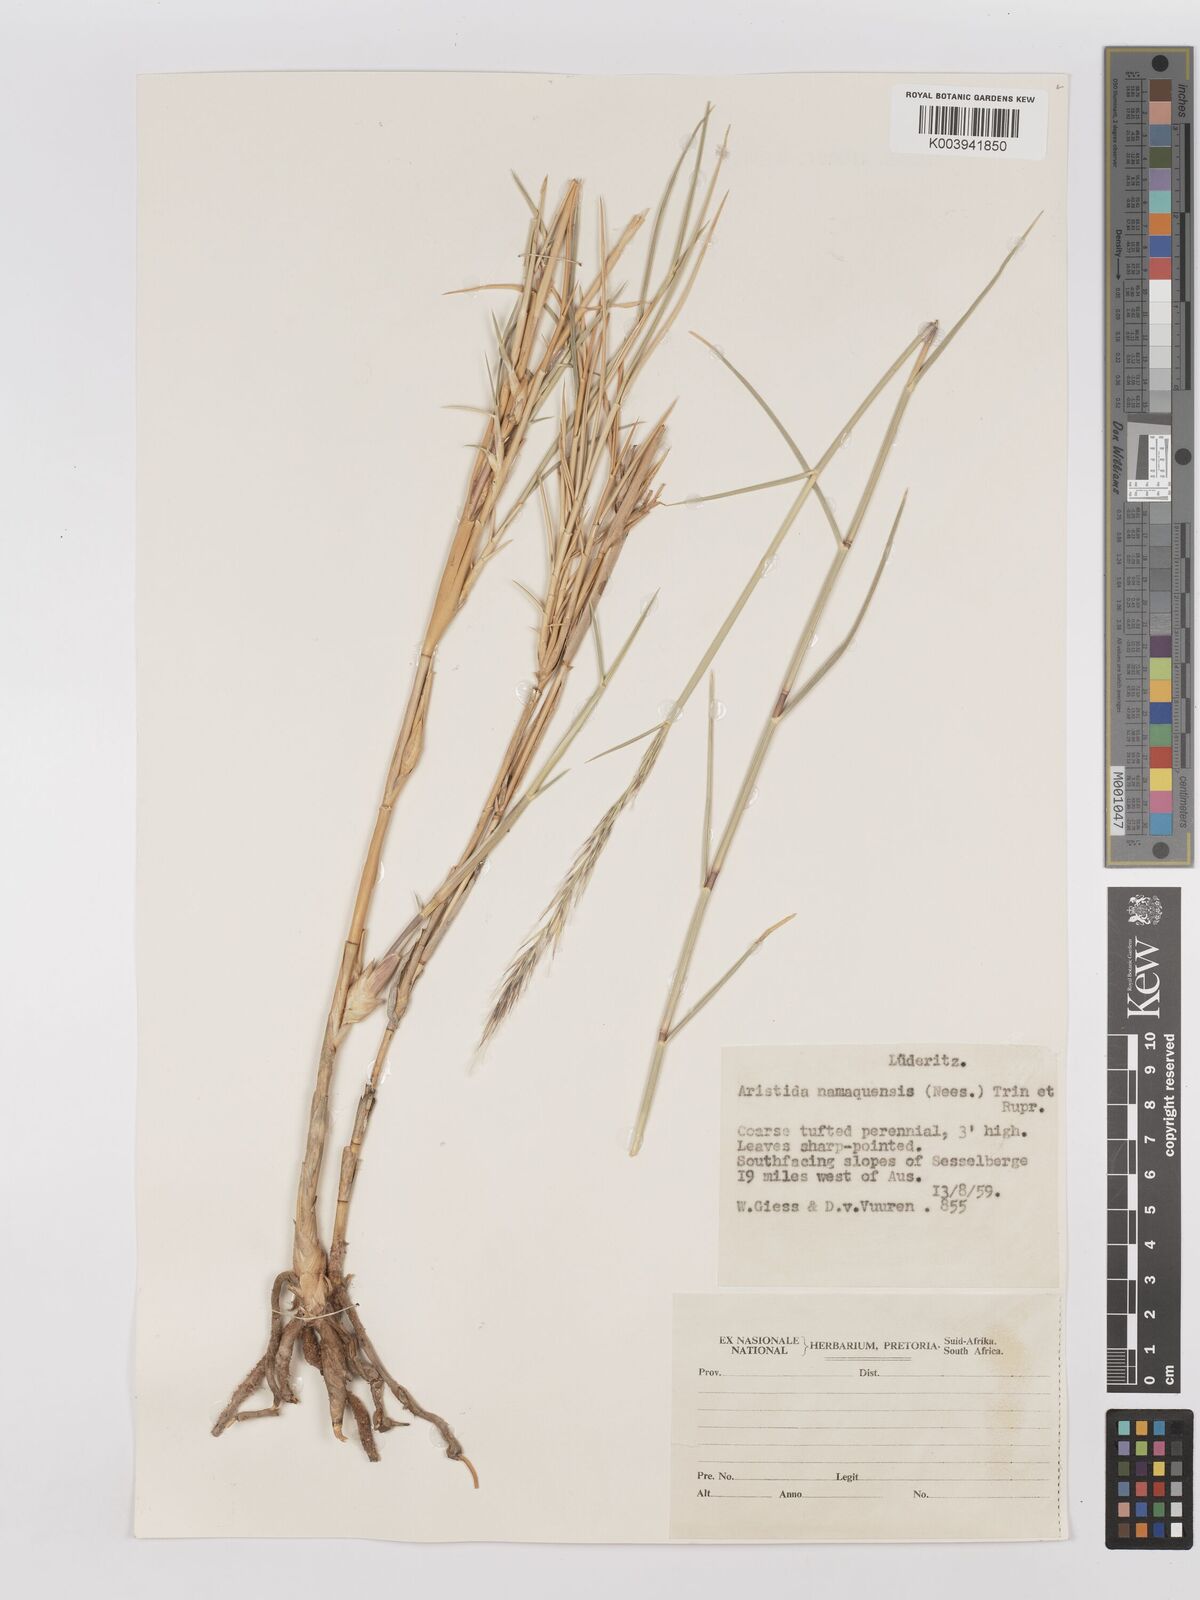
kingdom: Plantae
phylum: Tracheophyta
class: Liliopsida
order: Poales
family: Poaceae
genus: Stipagrostis
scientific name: Stipagrostis namaquensis
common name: River bushman grass
